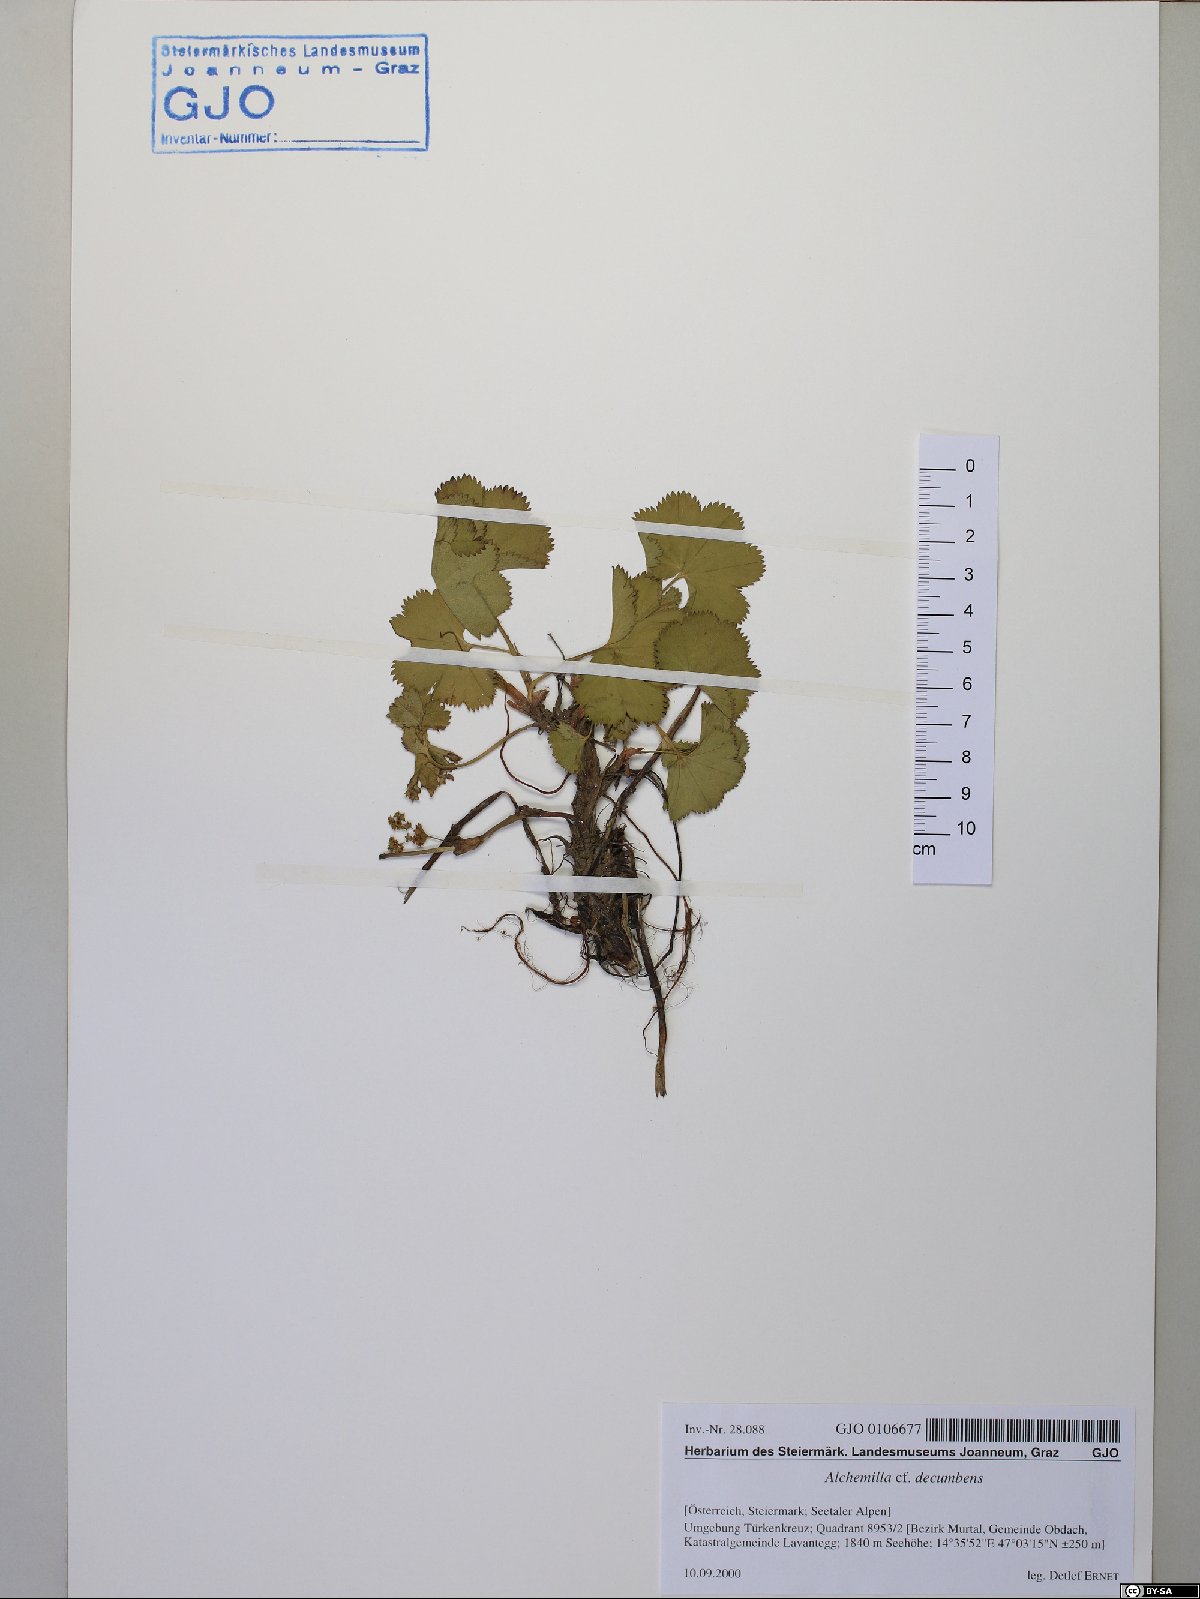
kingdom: Plantae
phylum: Tracheophyta
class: Magnoliopsida
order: Rosales
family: Rosaceae
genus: Alchemilla
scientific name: Alchemilla decumbens
